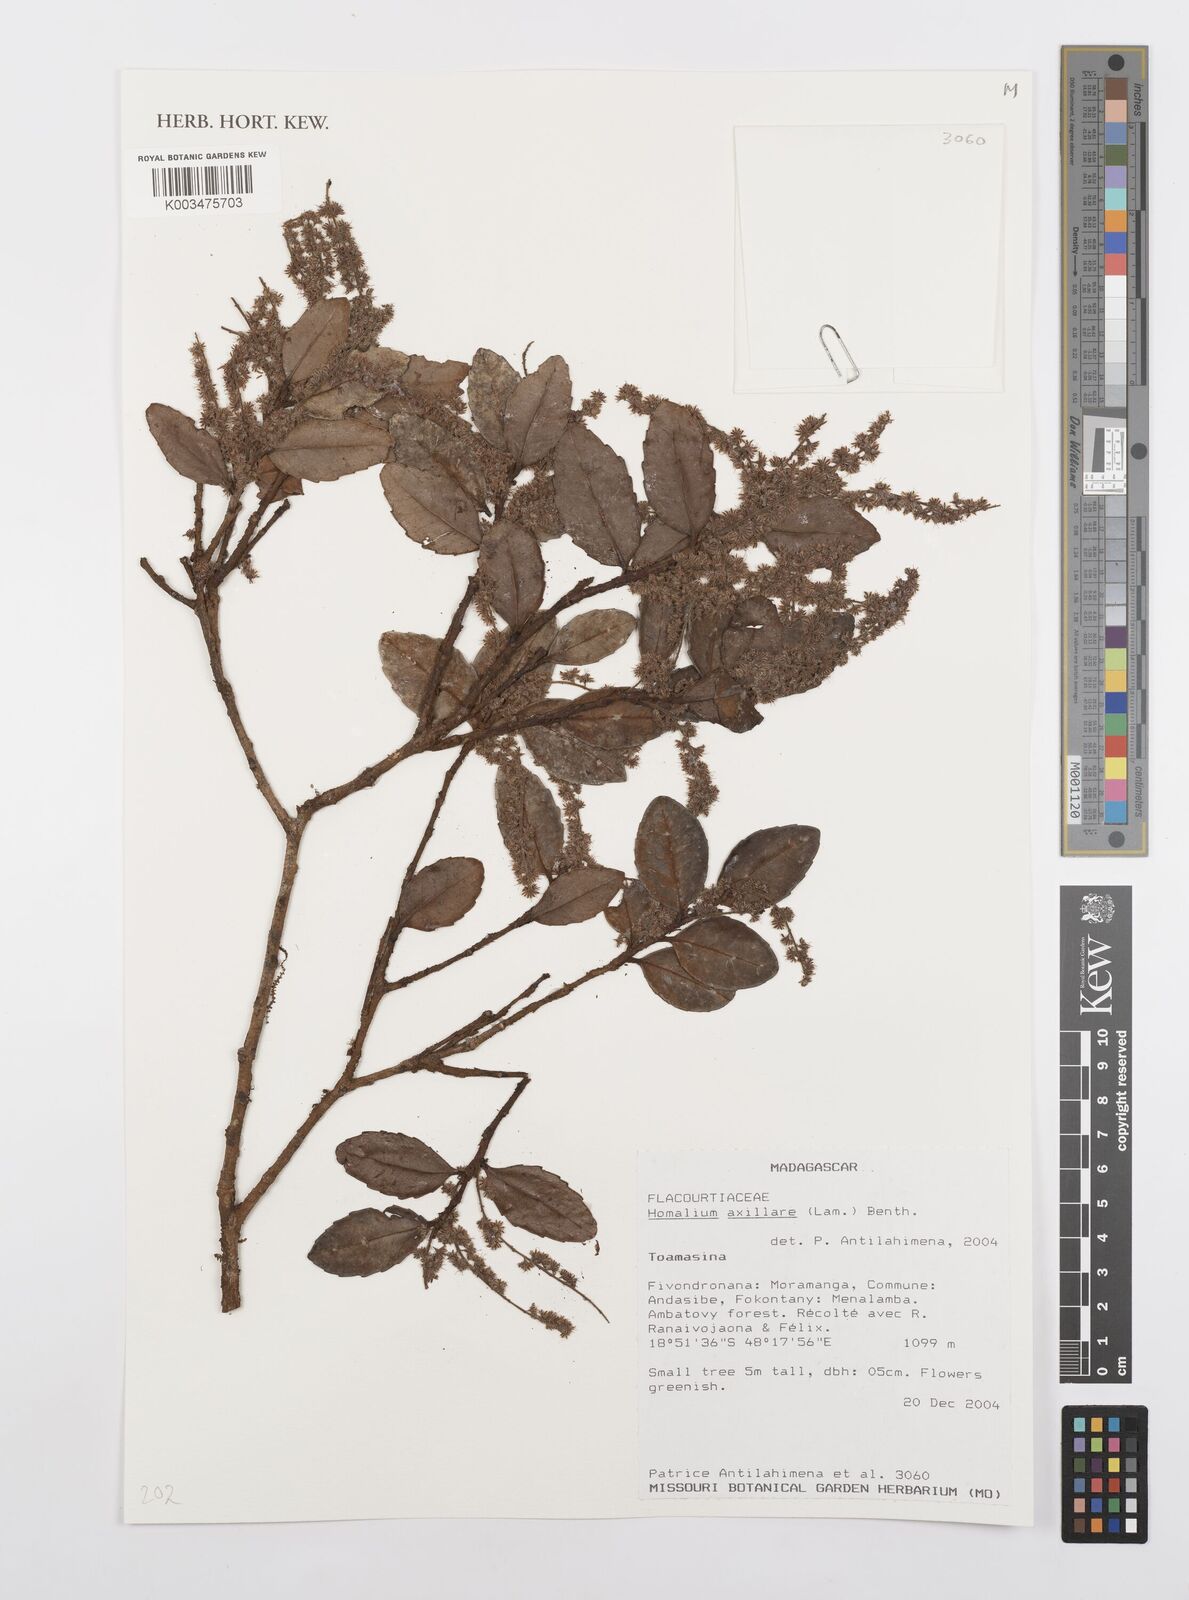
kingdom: Plantae
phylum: Tracheophyta
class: Magnoliopsida
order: Malpighiales
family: Salicaceae
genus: Homalium
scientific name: Homalium axillare
